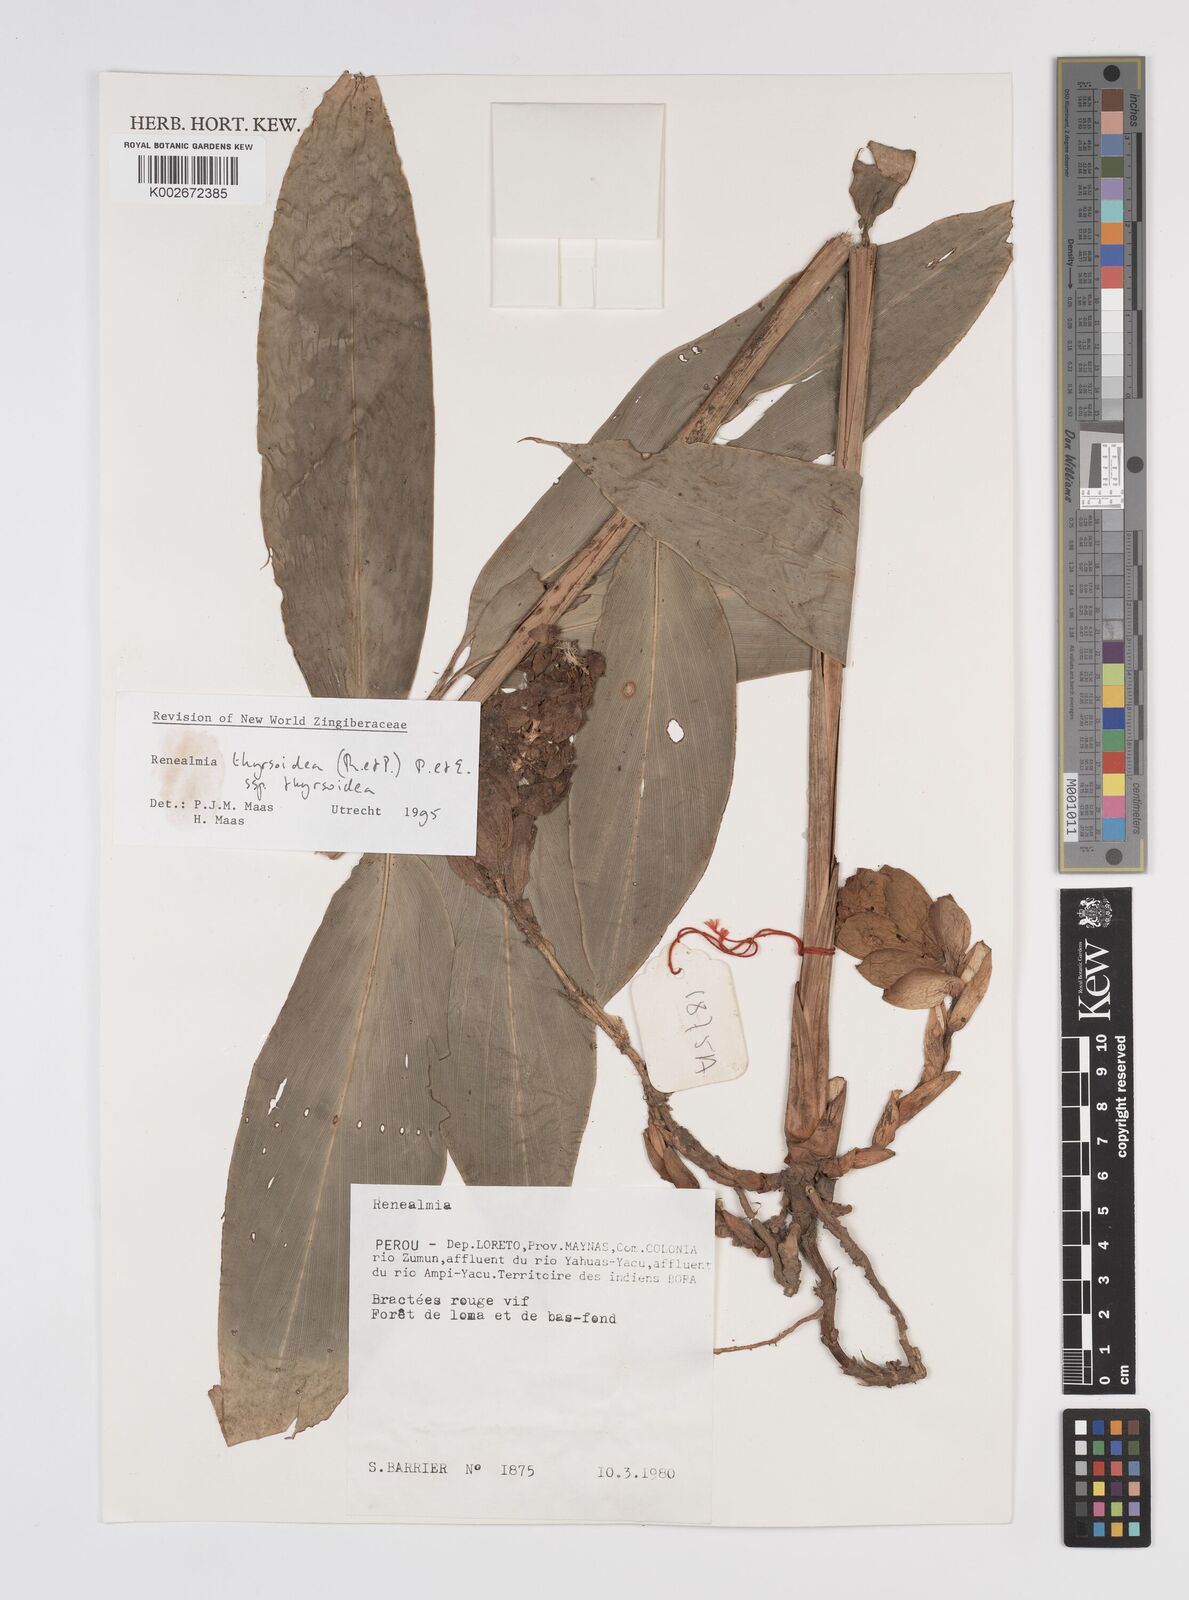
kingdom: Plantae
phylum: Tracheophyta
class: Liliopsida
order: Zingiberales
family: Zingiberaceae
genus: Renealmia
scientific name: Renealmia thyrsoidea
